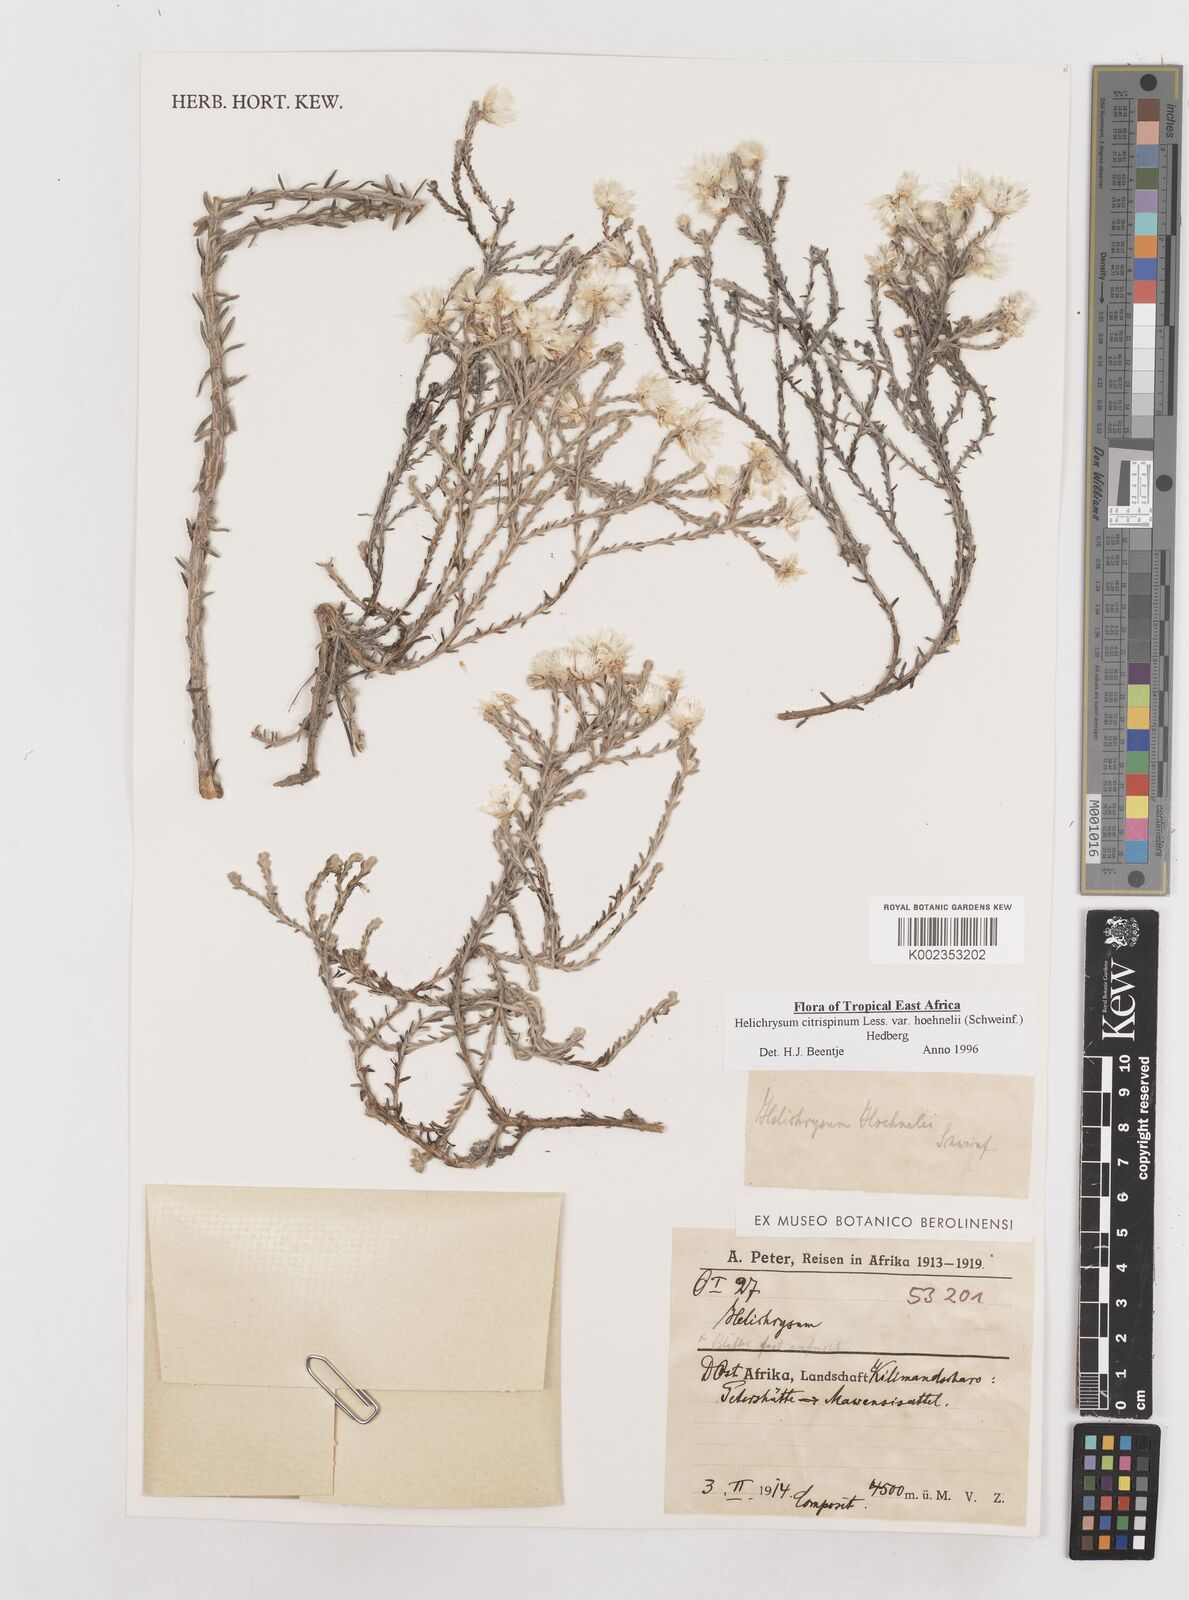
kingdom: Plantae
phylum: Tracheophyta
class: Magnoliopsida
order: Asterales
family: Asteraceae
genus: Helichrysum
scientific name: Helichrysum citrispinum
